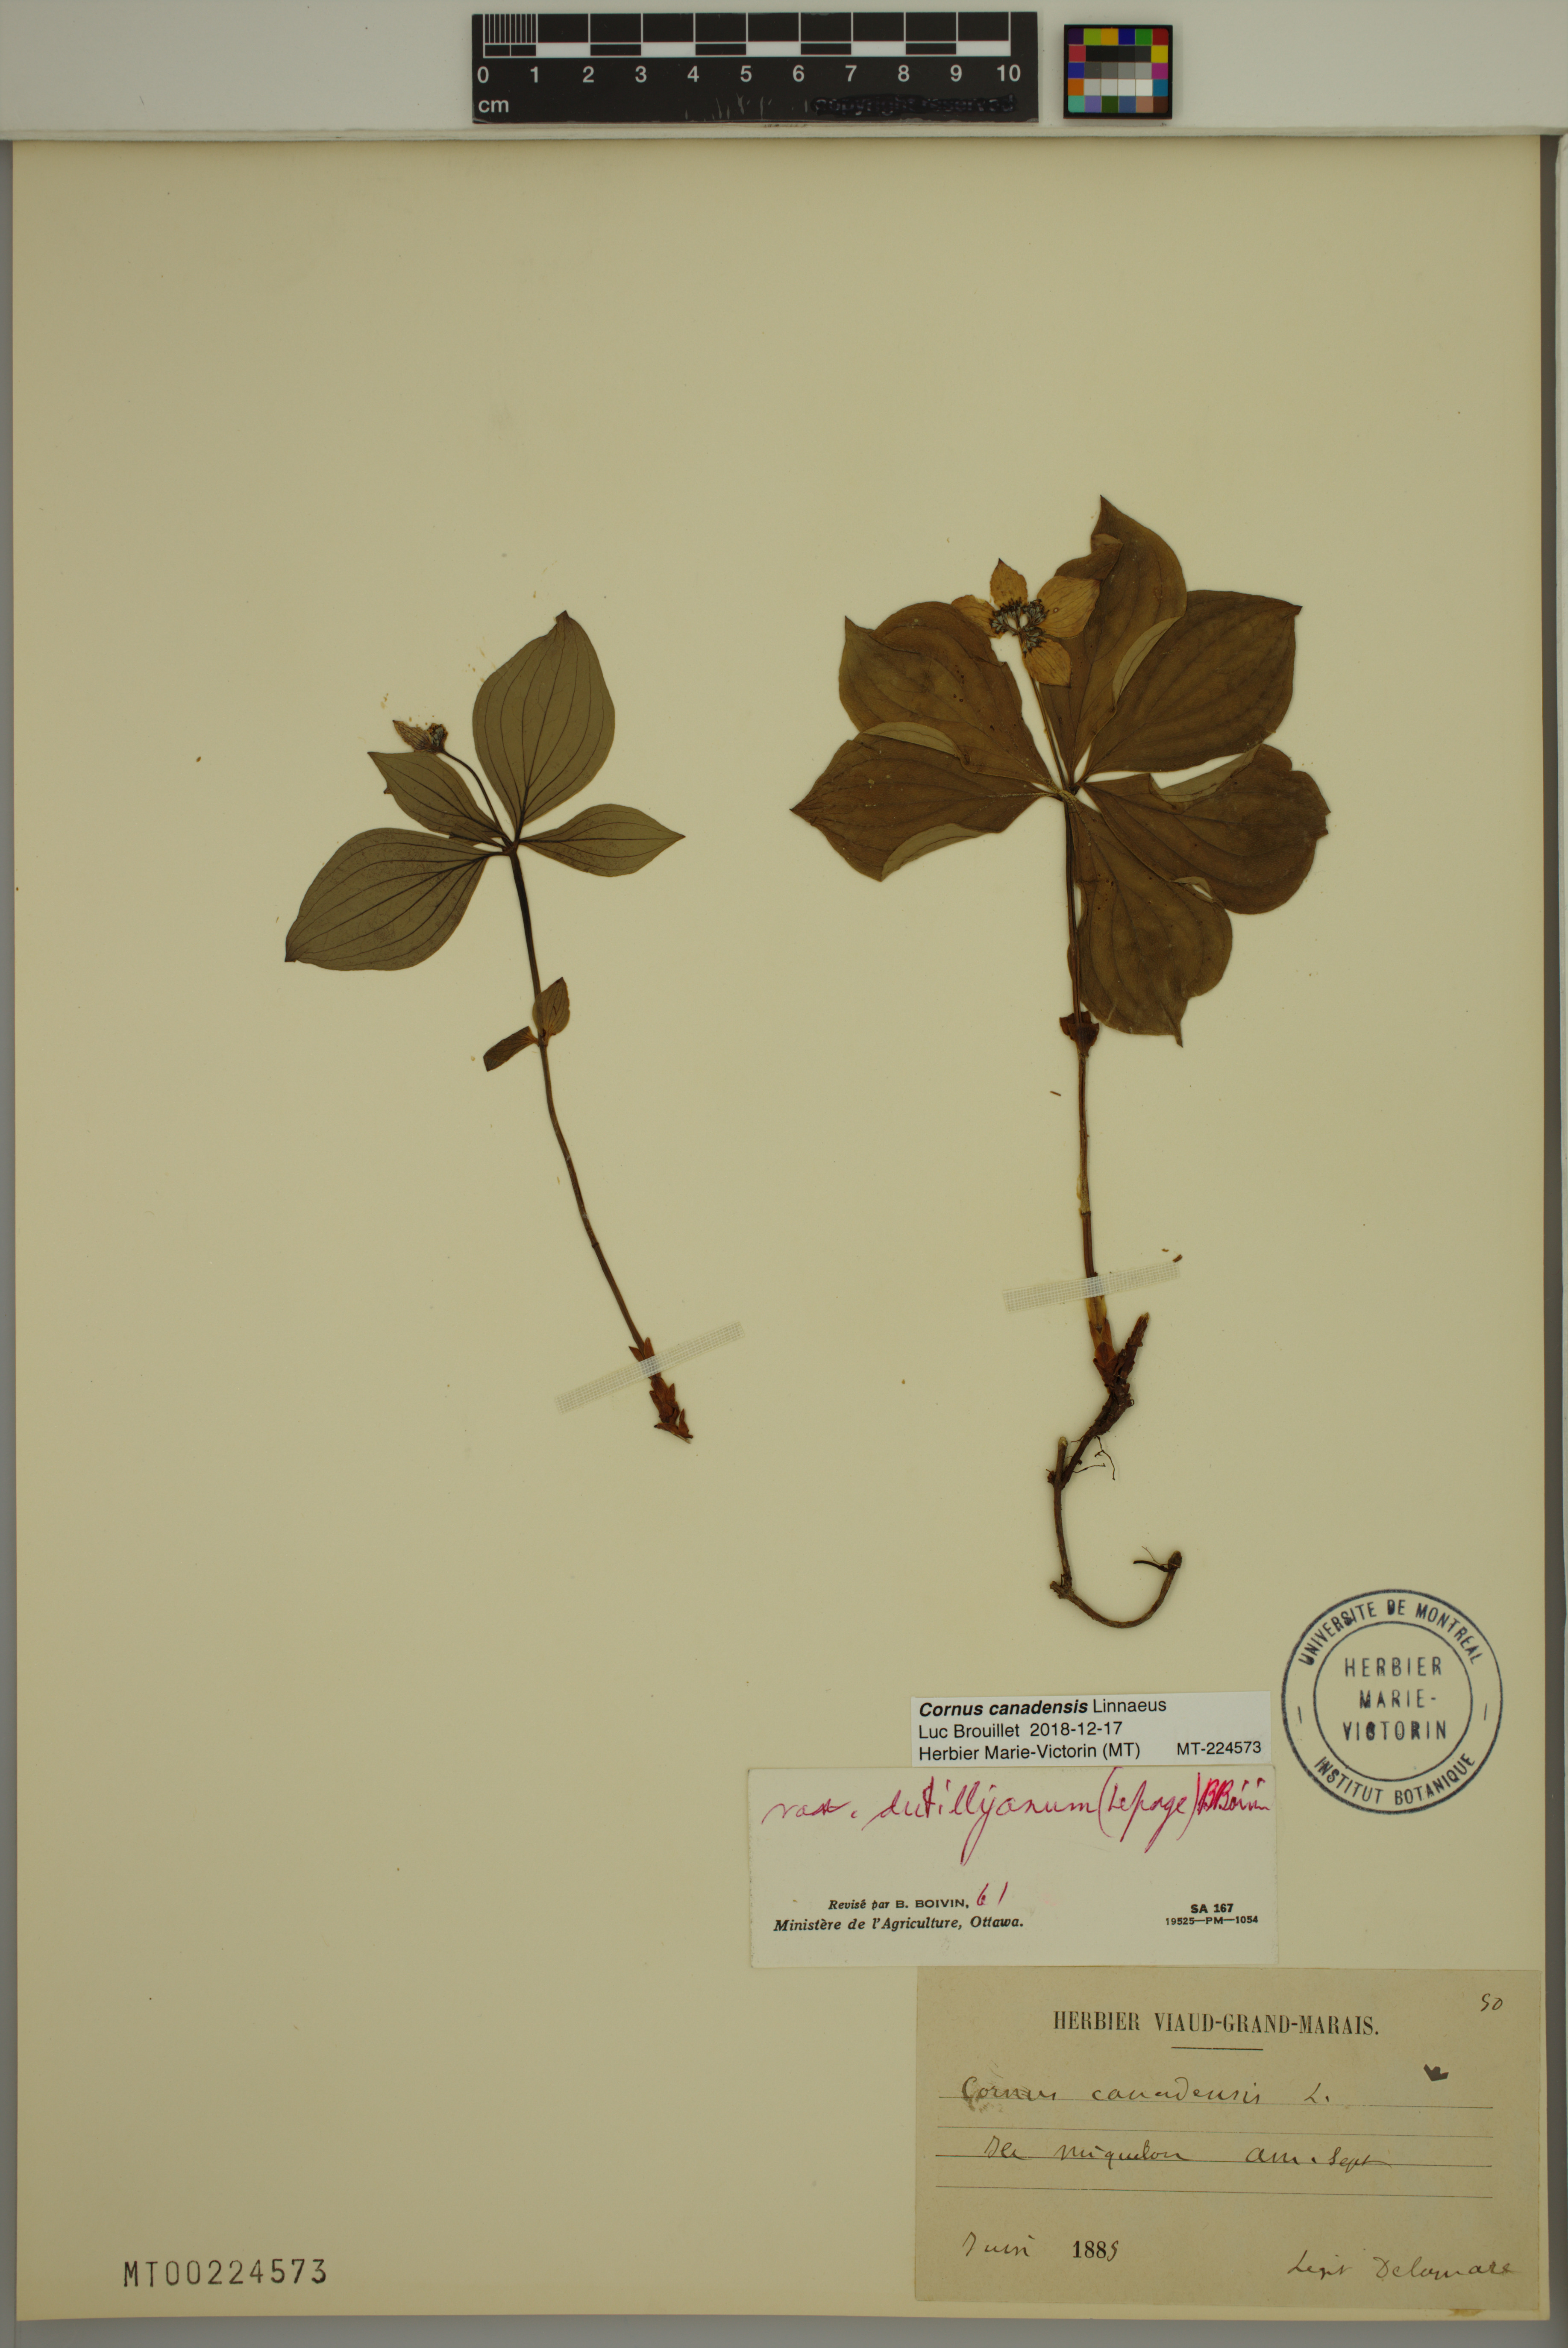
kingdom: Plantae
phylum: Tracheophyta
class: Magnoliopsida
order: Cornales
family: Cornaceae
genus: Cornus
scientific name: Cornus canadensis
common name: Creeping dogwood
